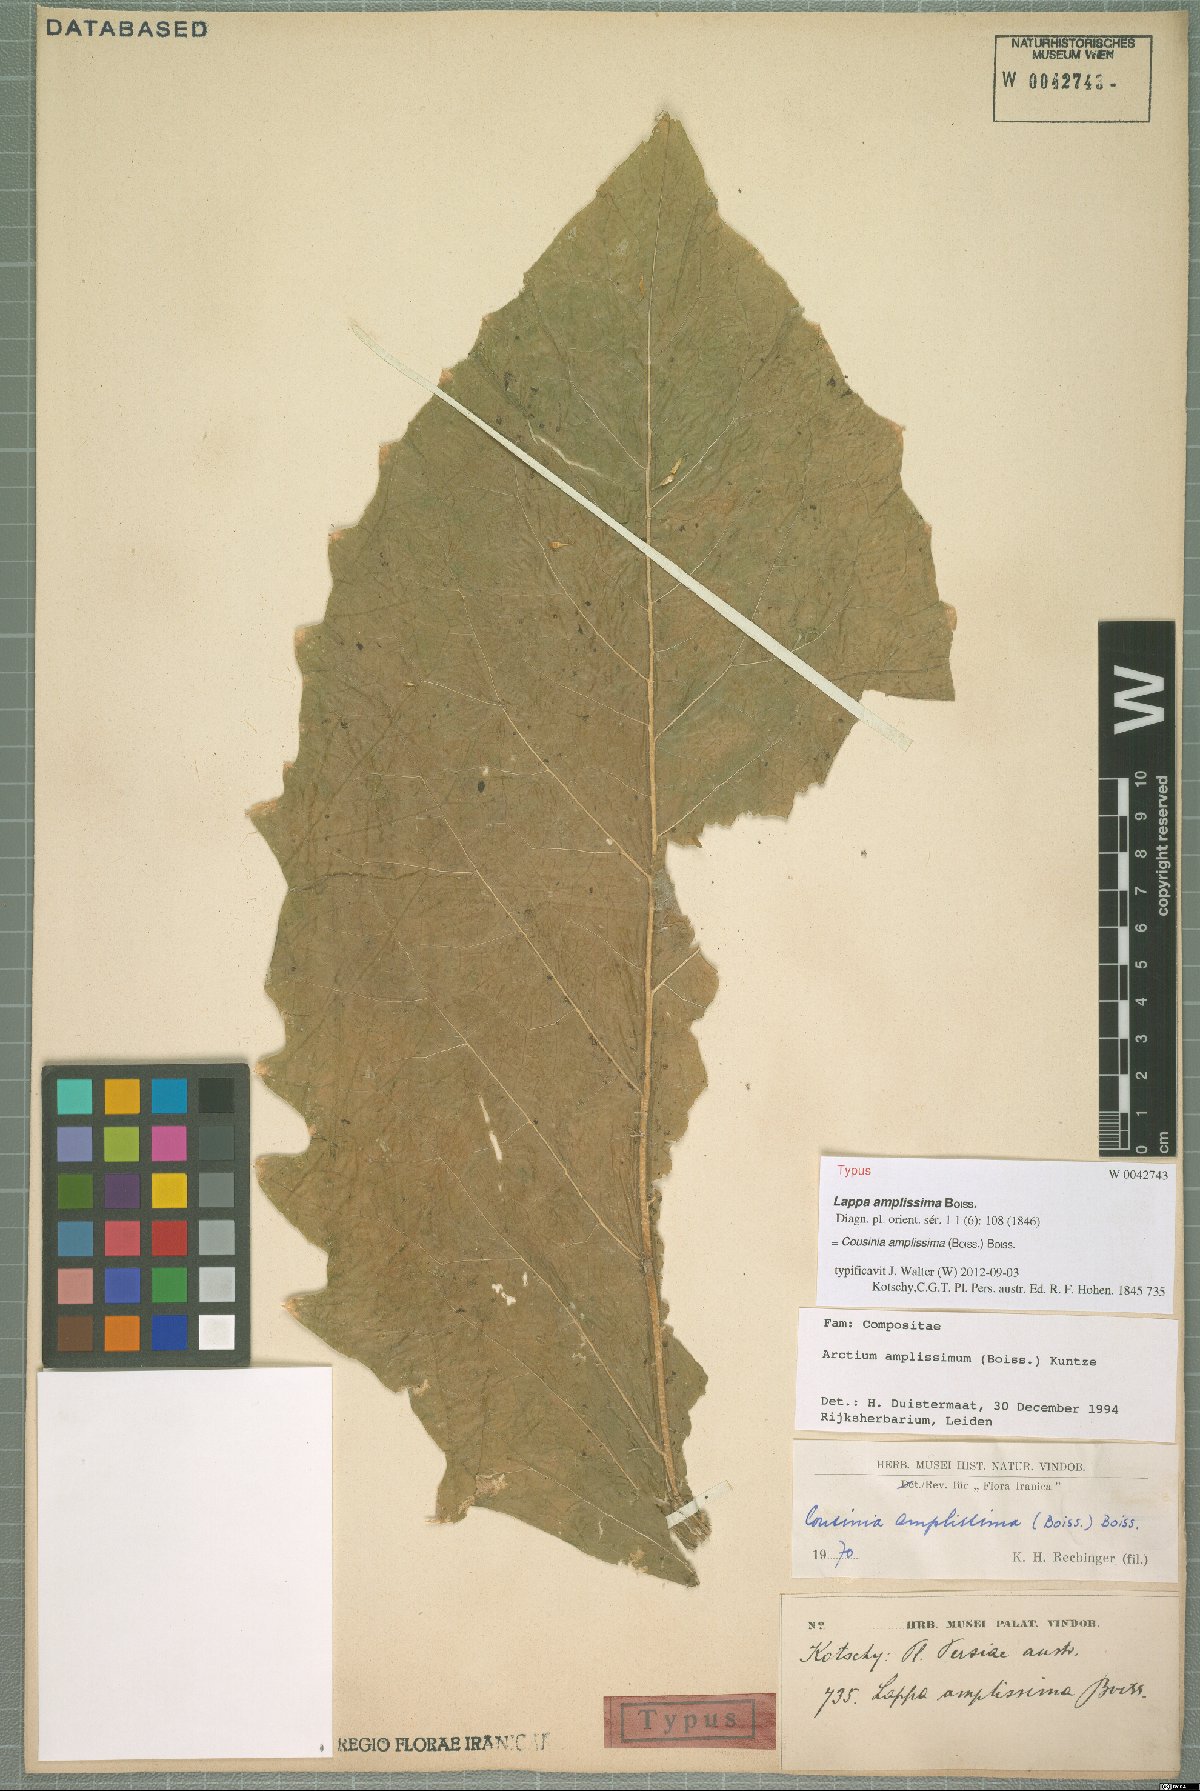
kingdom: Plantae
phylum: Tracheophyta
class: Magnoliopsida
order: Asterales
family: Asteraceae
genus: Arctium
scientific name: Arctium amplissimum
